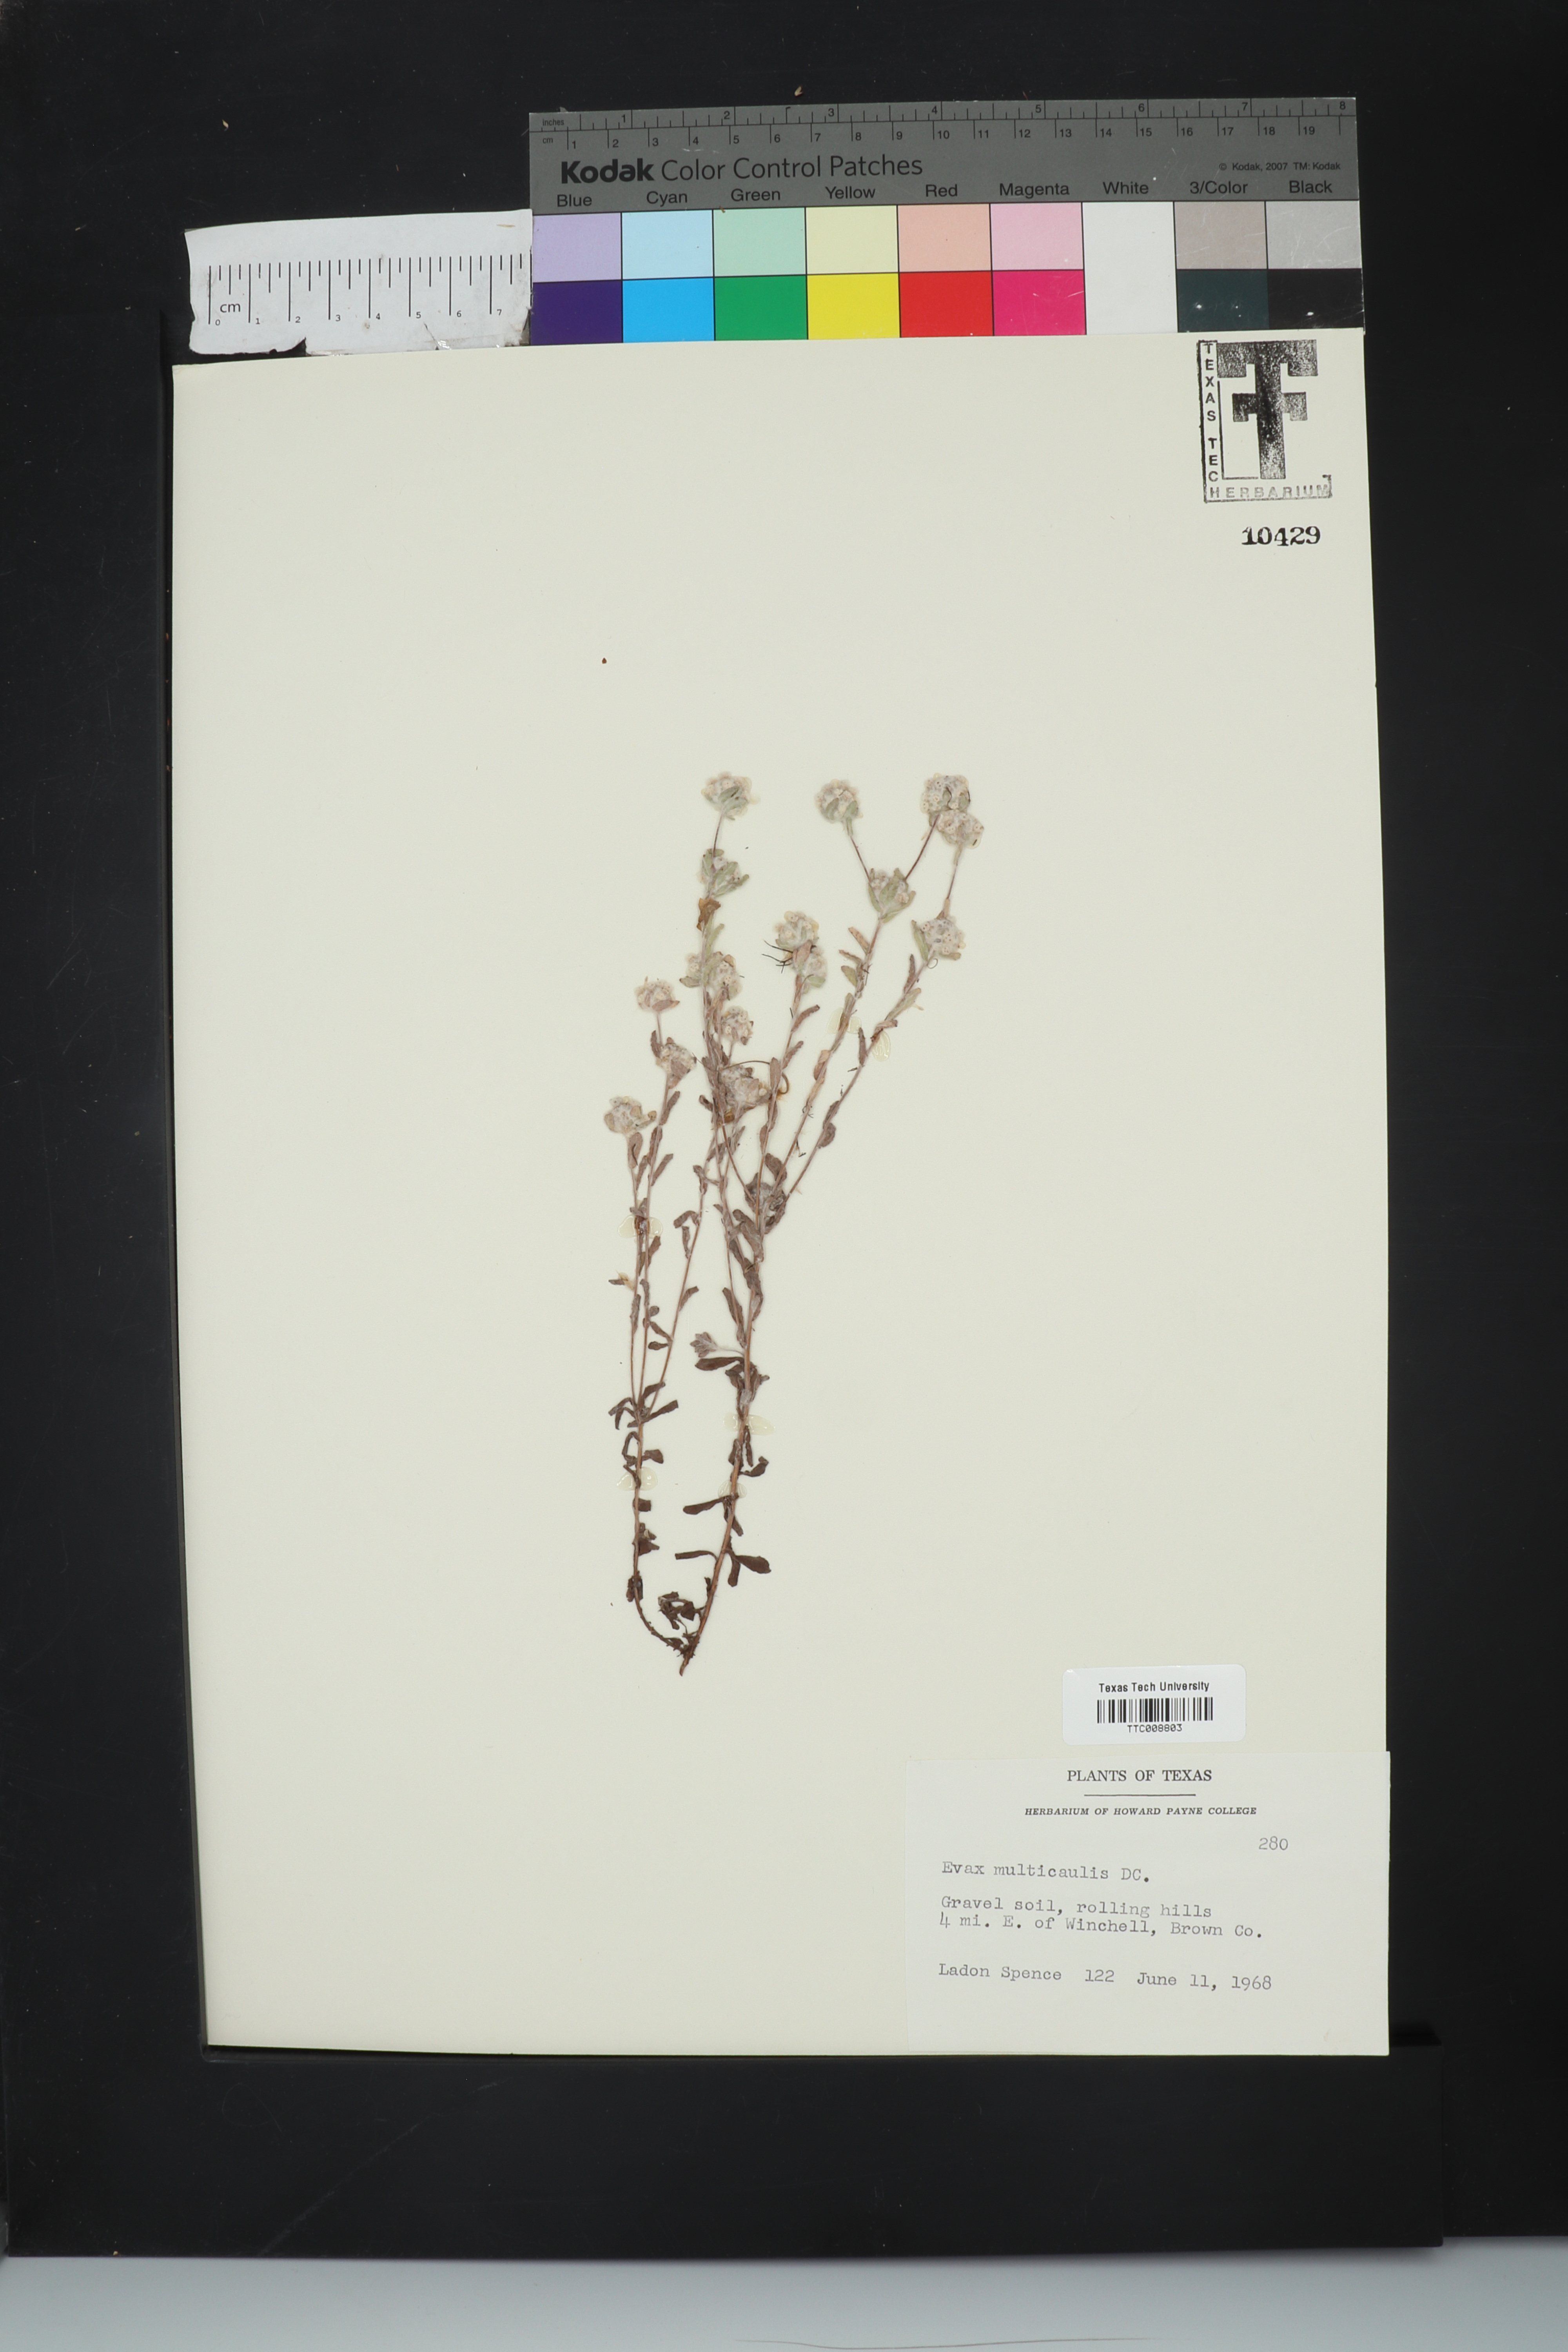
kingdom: Plantae
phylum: Tracheophyta
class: Magnoliopsida
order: Asterales
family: Asteraceae
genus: Diaperia
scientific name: Diaperia verna
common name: Many-stem rabbit-tobacco
